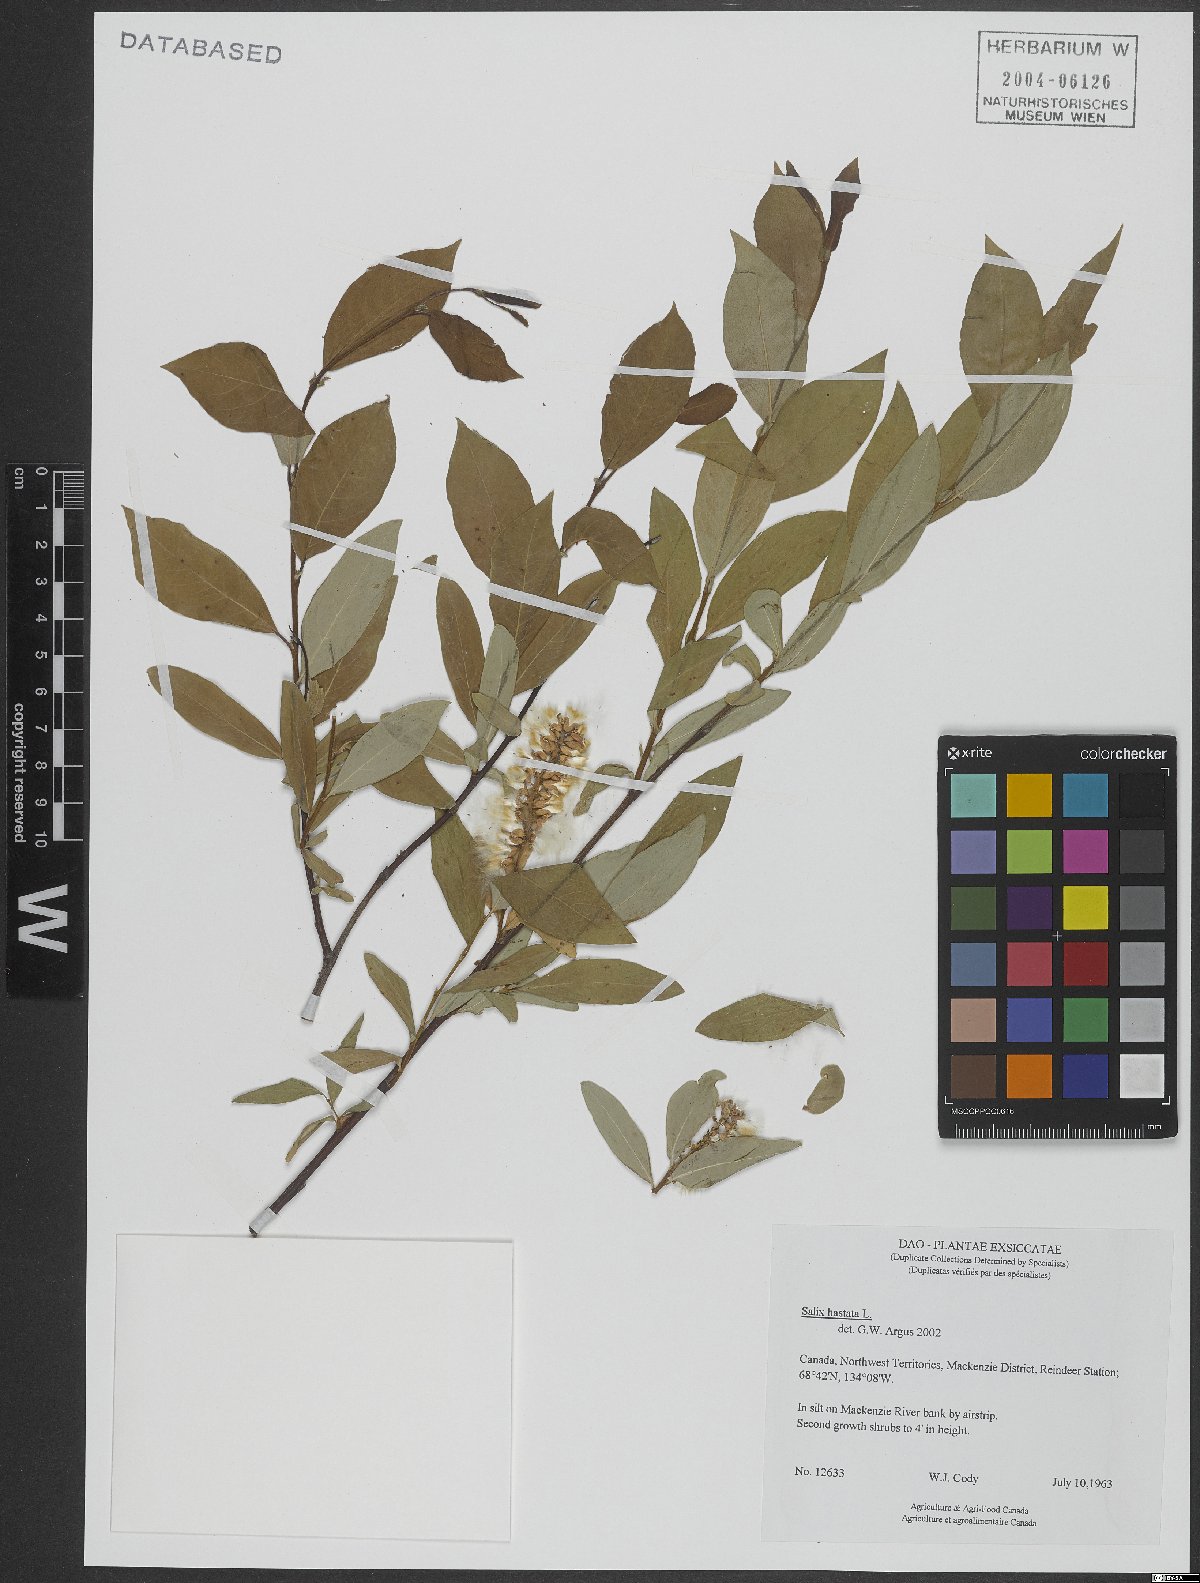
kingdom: Plantae
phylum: Tracheophyta
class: Magnoliopsida
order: Malpighiales
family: Salicaceae
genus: Salix
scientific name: Salix hastata
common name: Halberd willow
